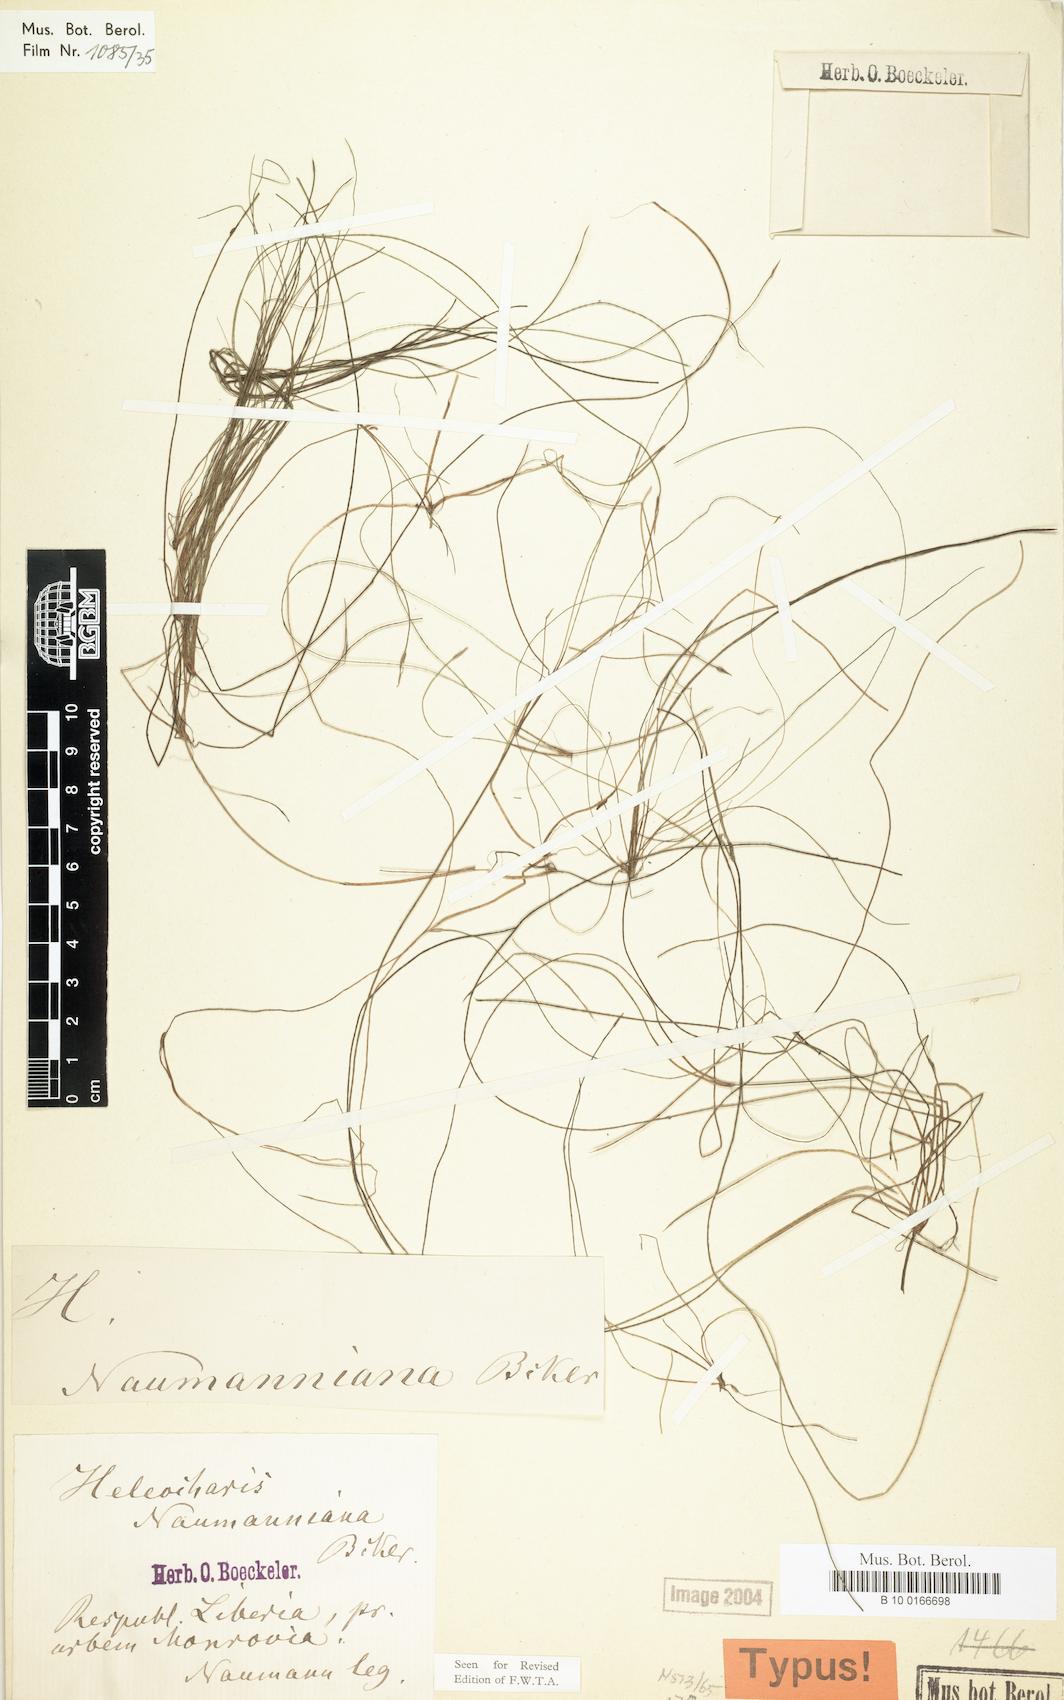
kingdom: Plantae
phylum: Tracheophyta
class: Liliopsida
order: Poales
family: Cyperaceae
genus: Eleocharis
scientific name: Eleocharis naumanniana
